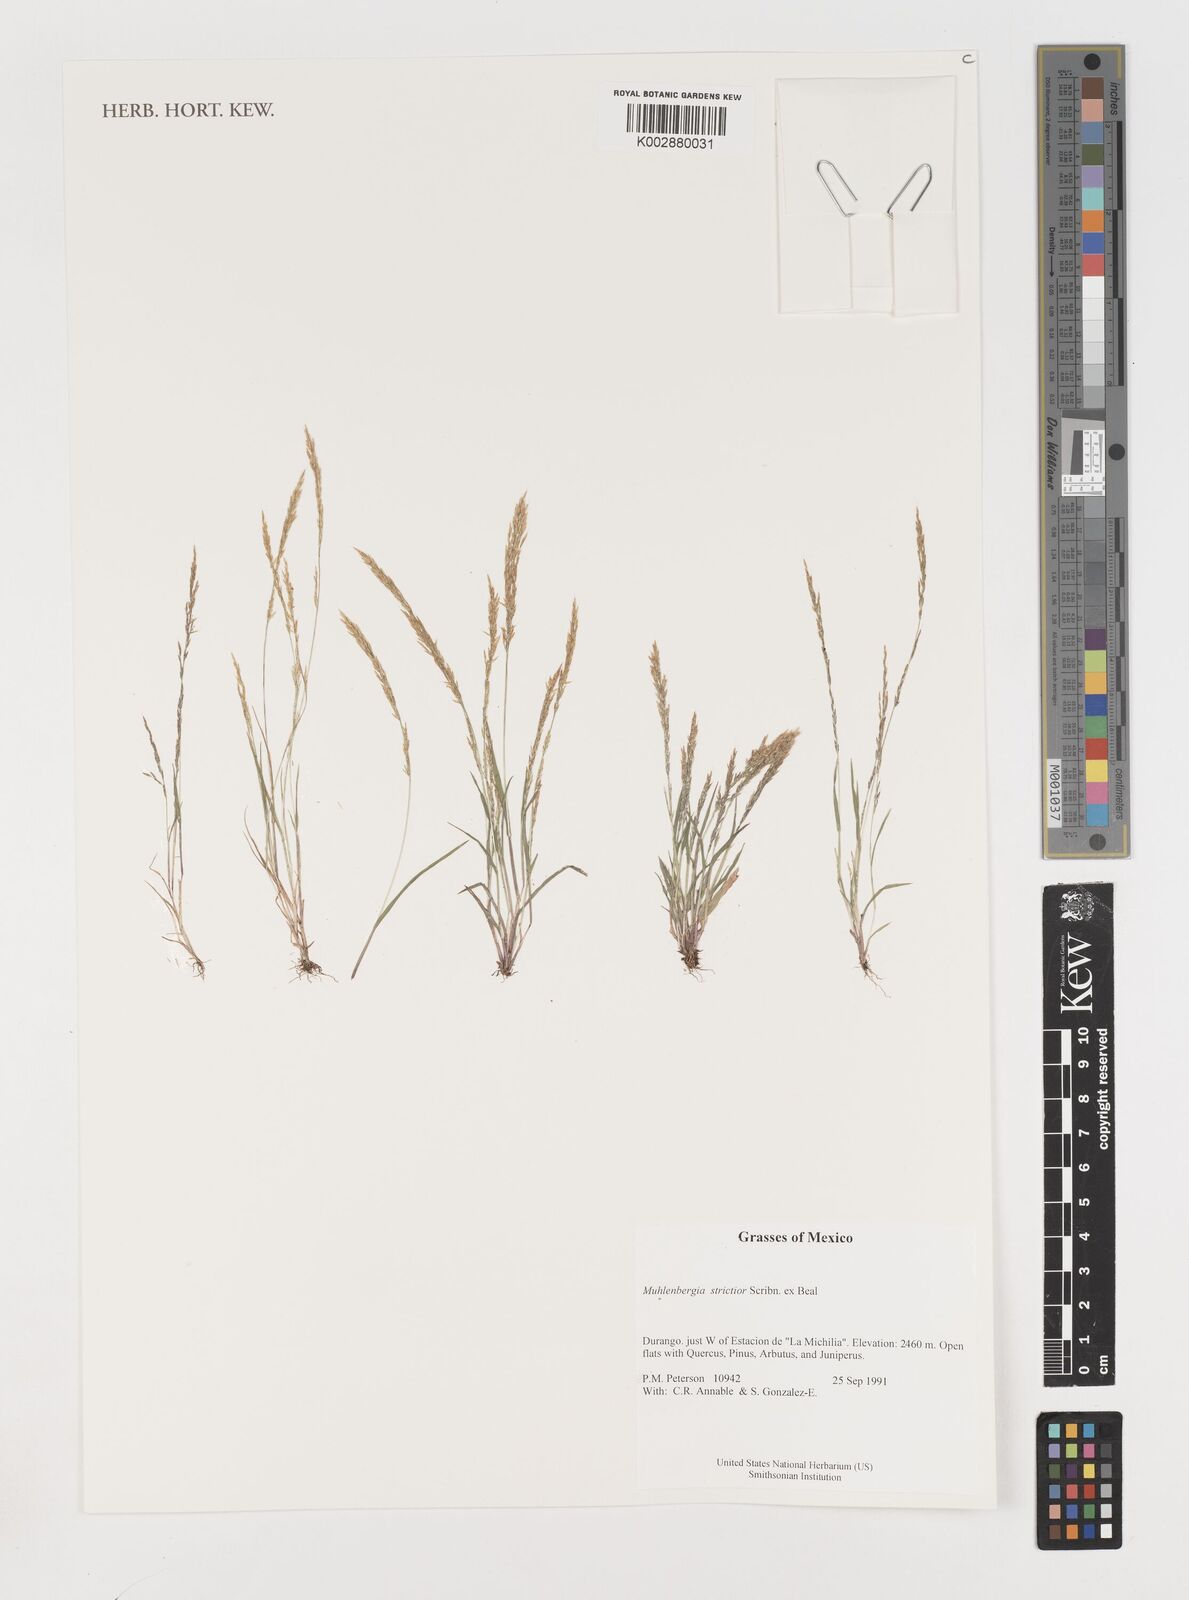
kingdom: Plantae
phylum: Tracheophyta
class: Liliopsida
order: Poales
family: Poaceae
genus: Muhlenbergia
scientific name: Muhlenbergia strictior
